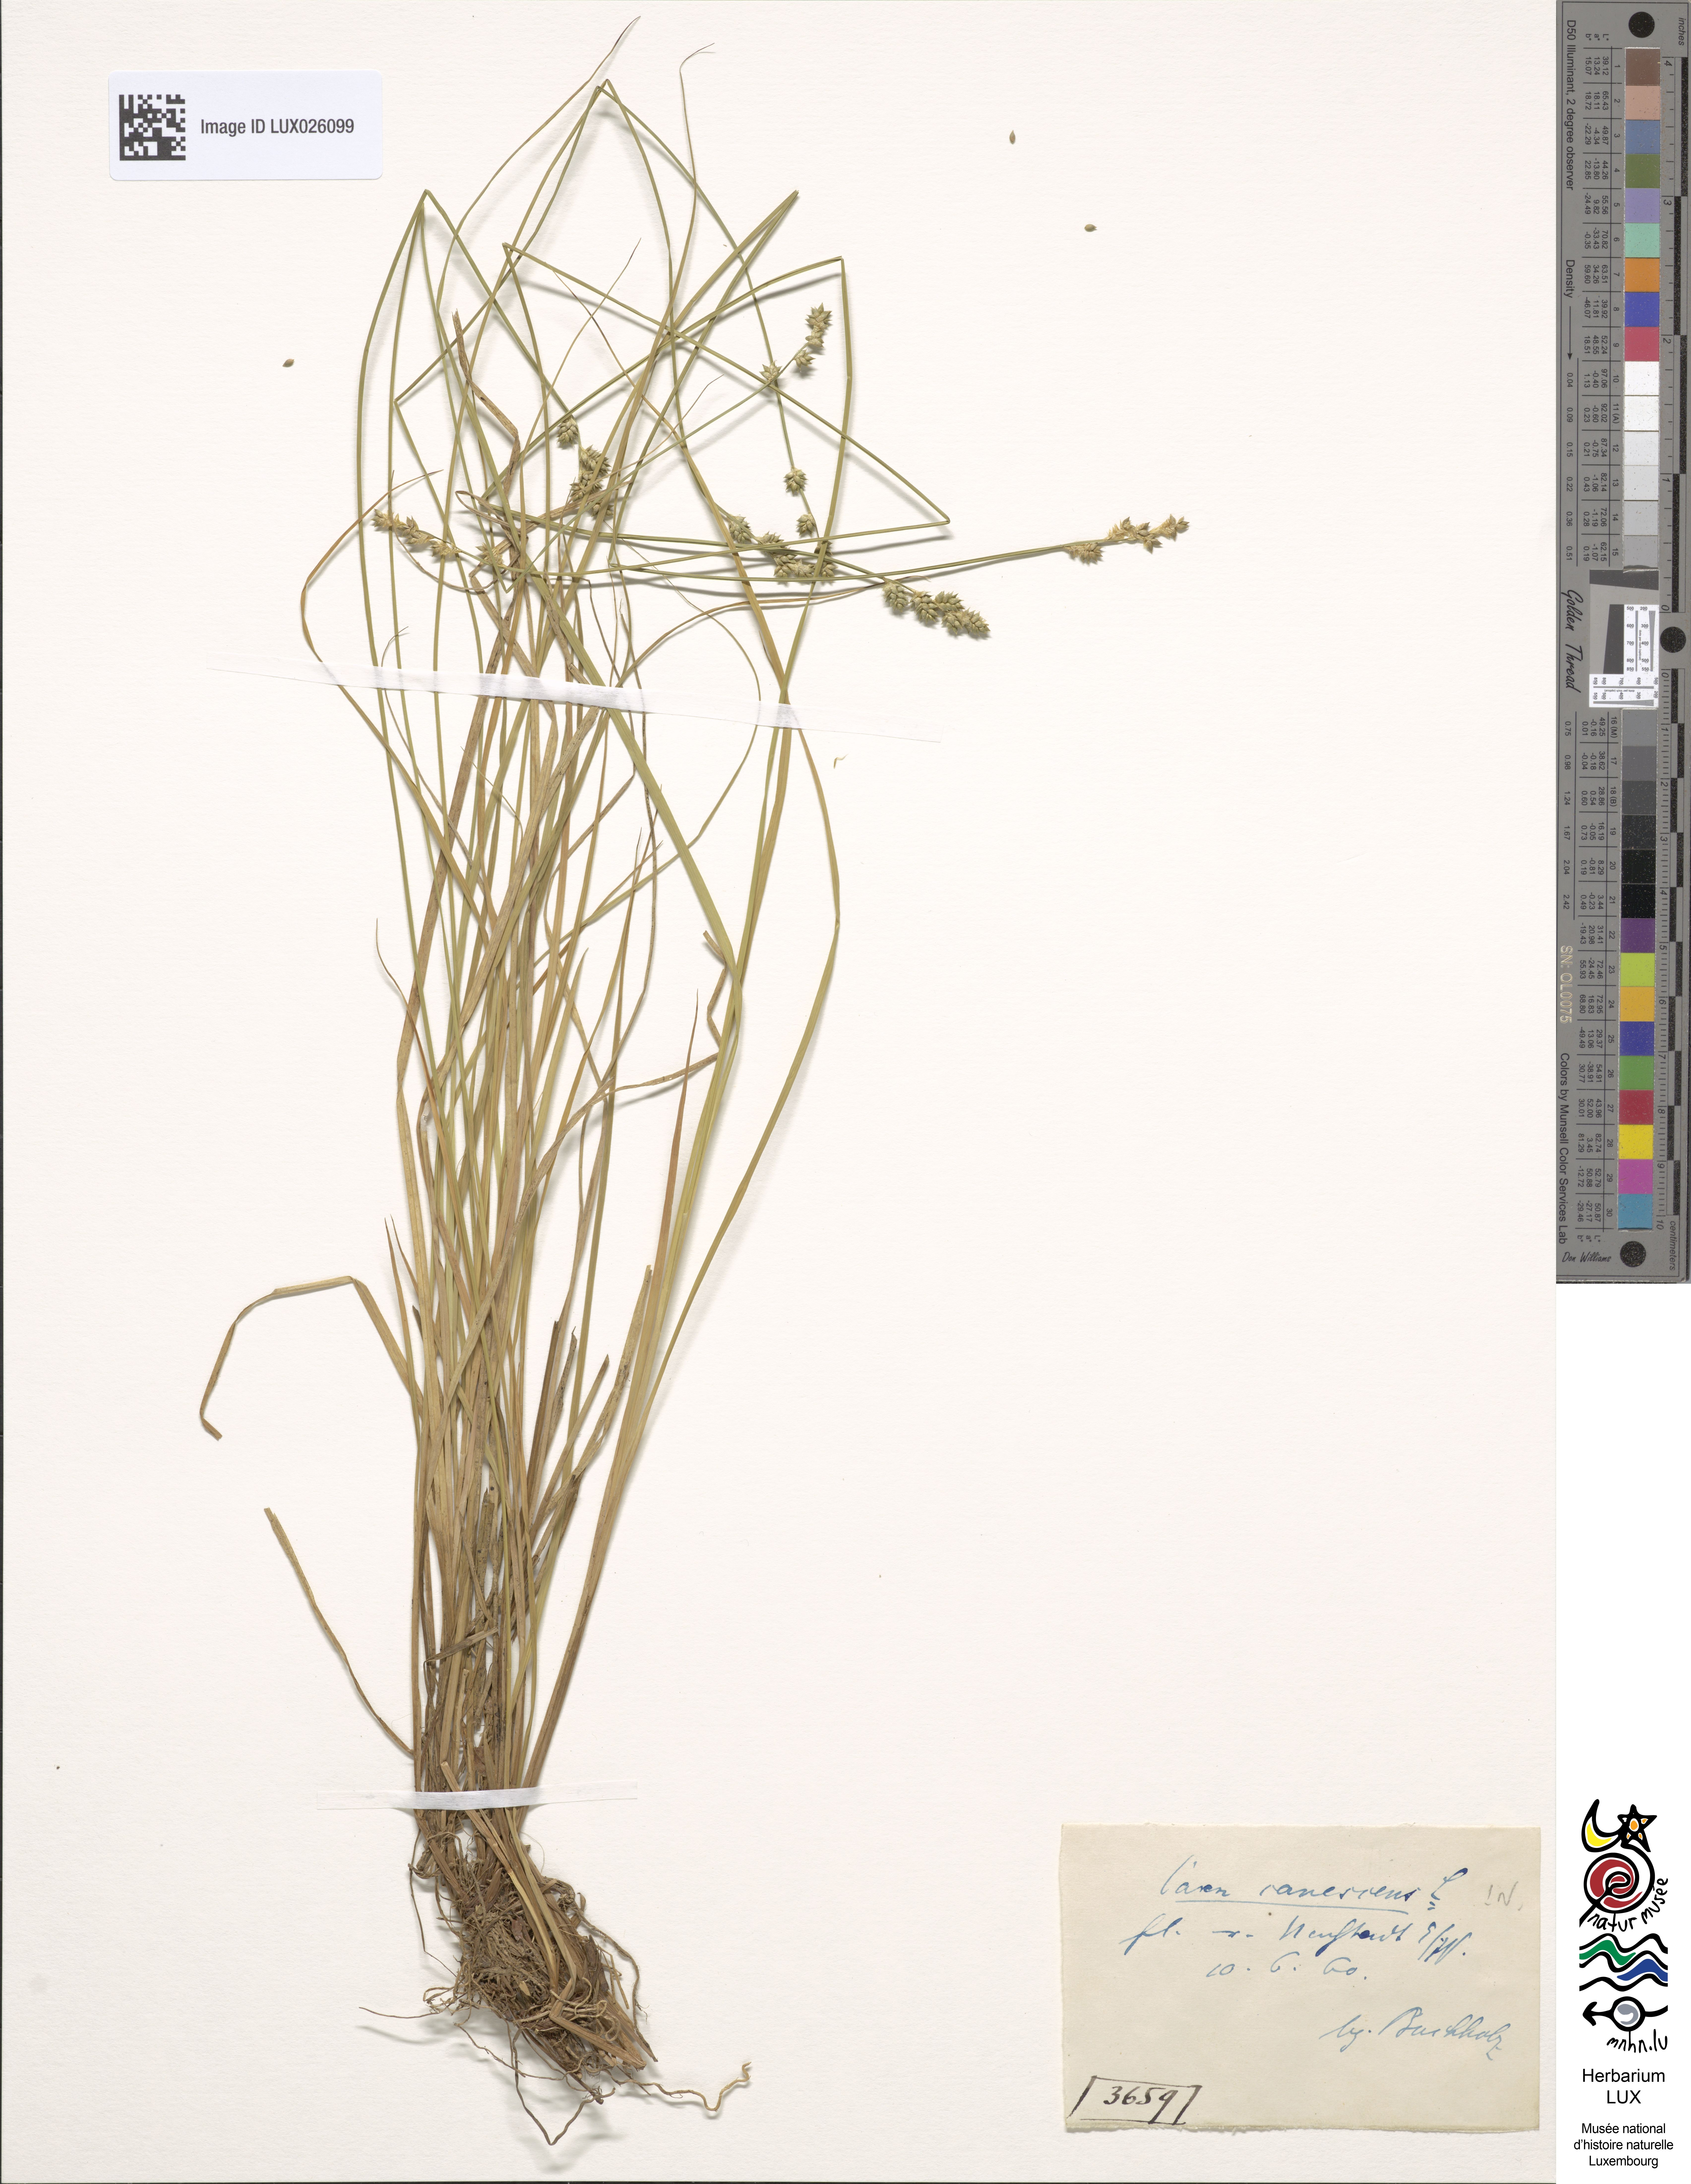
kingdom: Plantae
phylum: Tracheophyta
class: Liliopsida
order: Poales
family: Cyperaceae
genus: Carex
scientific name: Carex canescens
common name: White sedge
